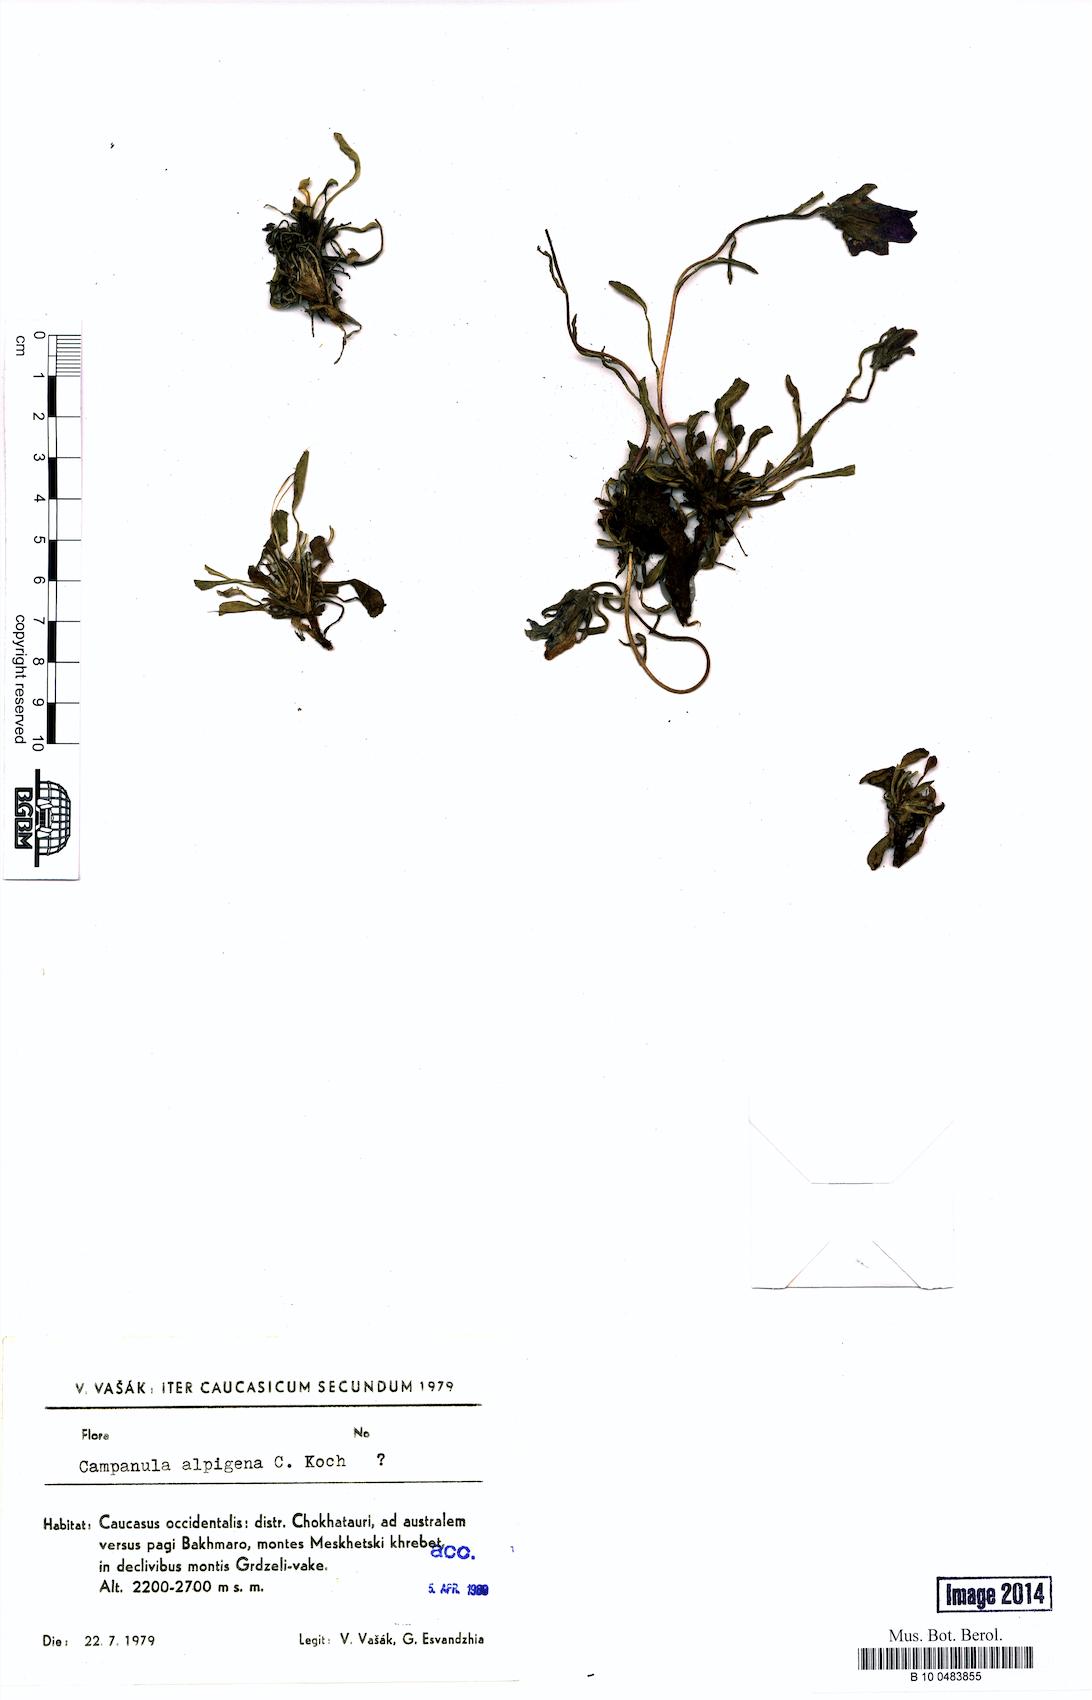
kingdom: Plantae
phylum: Tracheophyta
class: Magnoliopsida
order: Asterales
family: Campanulaceae
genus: Campanula
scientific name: Campanula saxifraga
